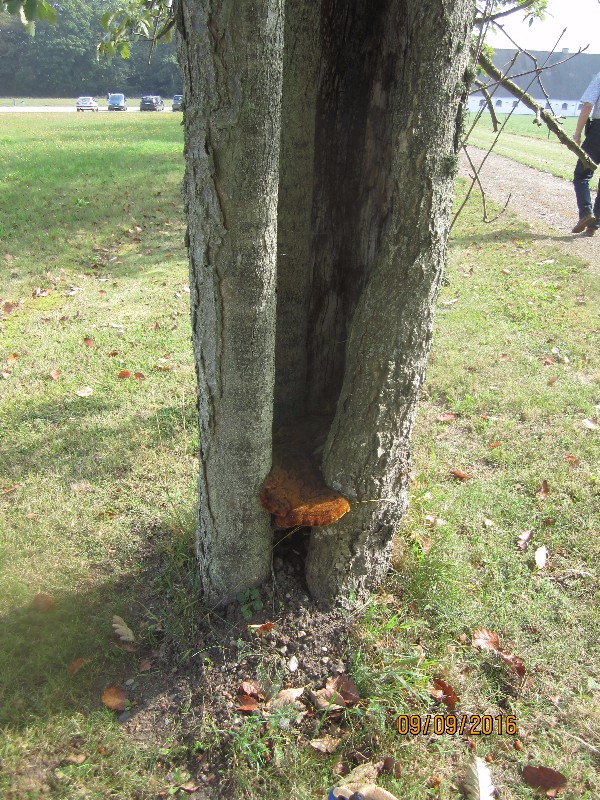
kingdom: Fungi
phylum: Basidiomycota
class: Agaricomycetes
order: Hymenochaetales
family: Hymenochaetaceae
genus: Inonotus
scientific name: Inonotus hispidus
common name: børstehåret spejlporesvamp
